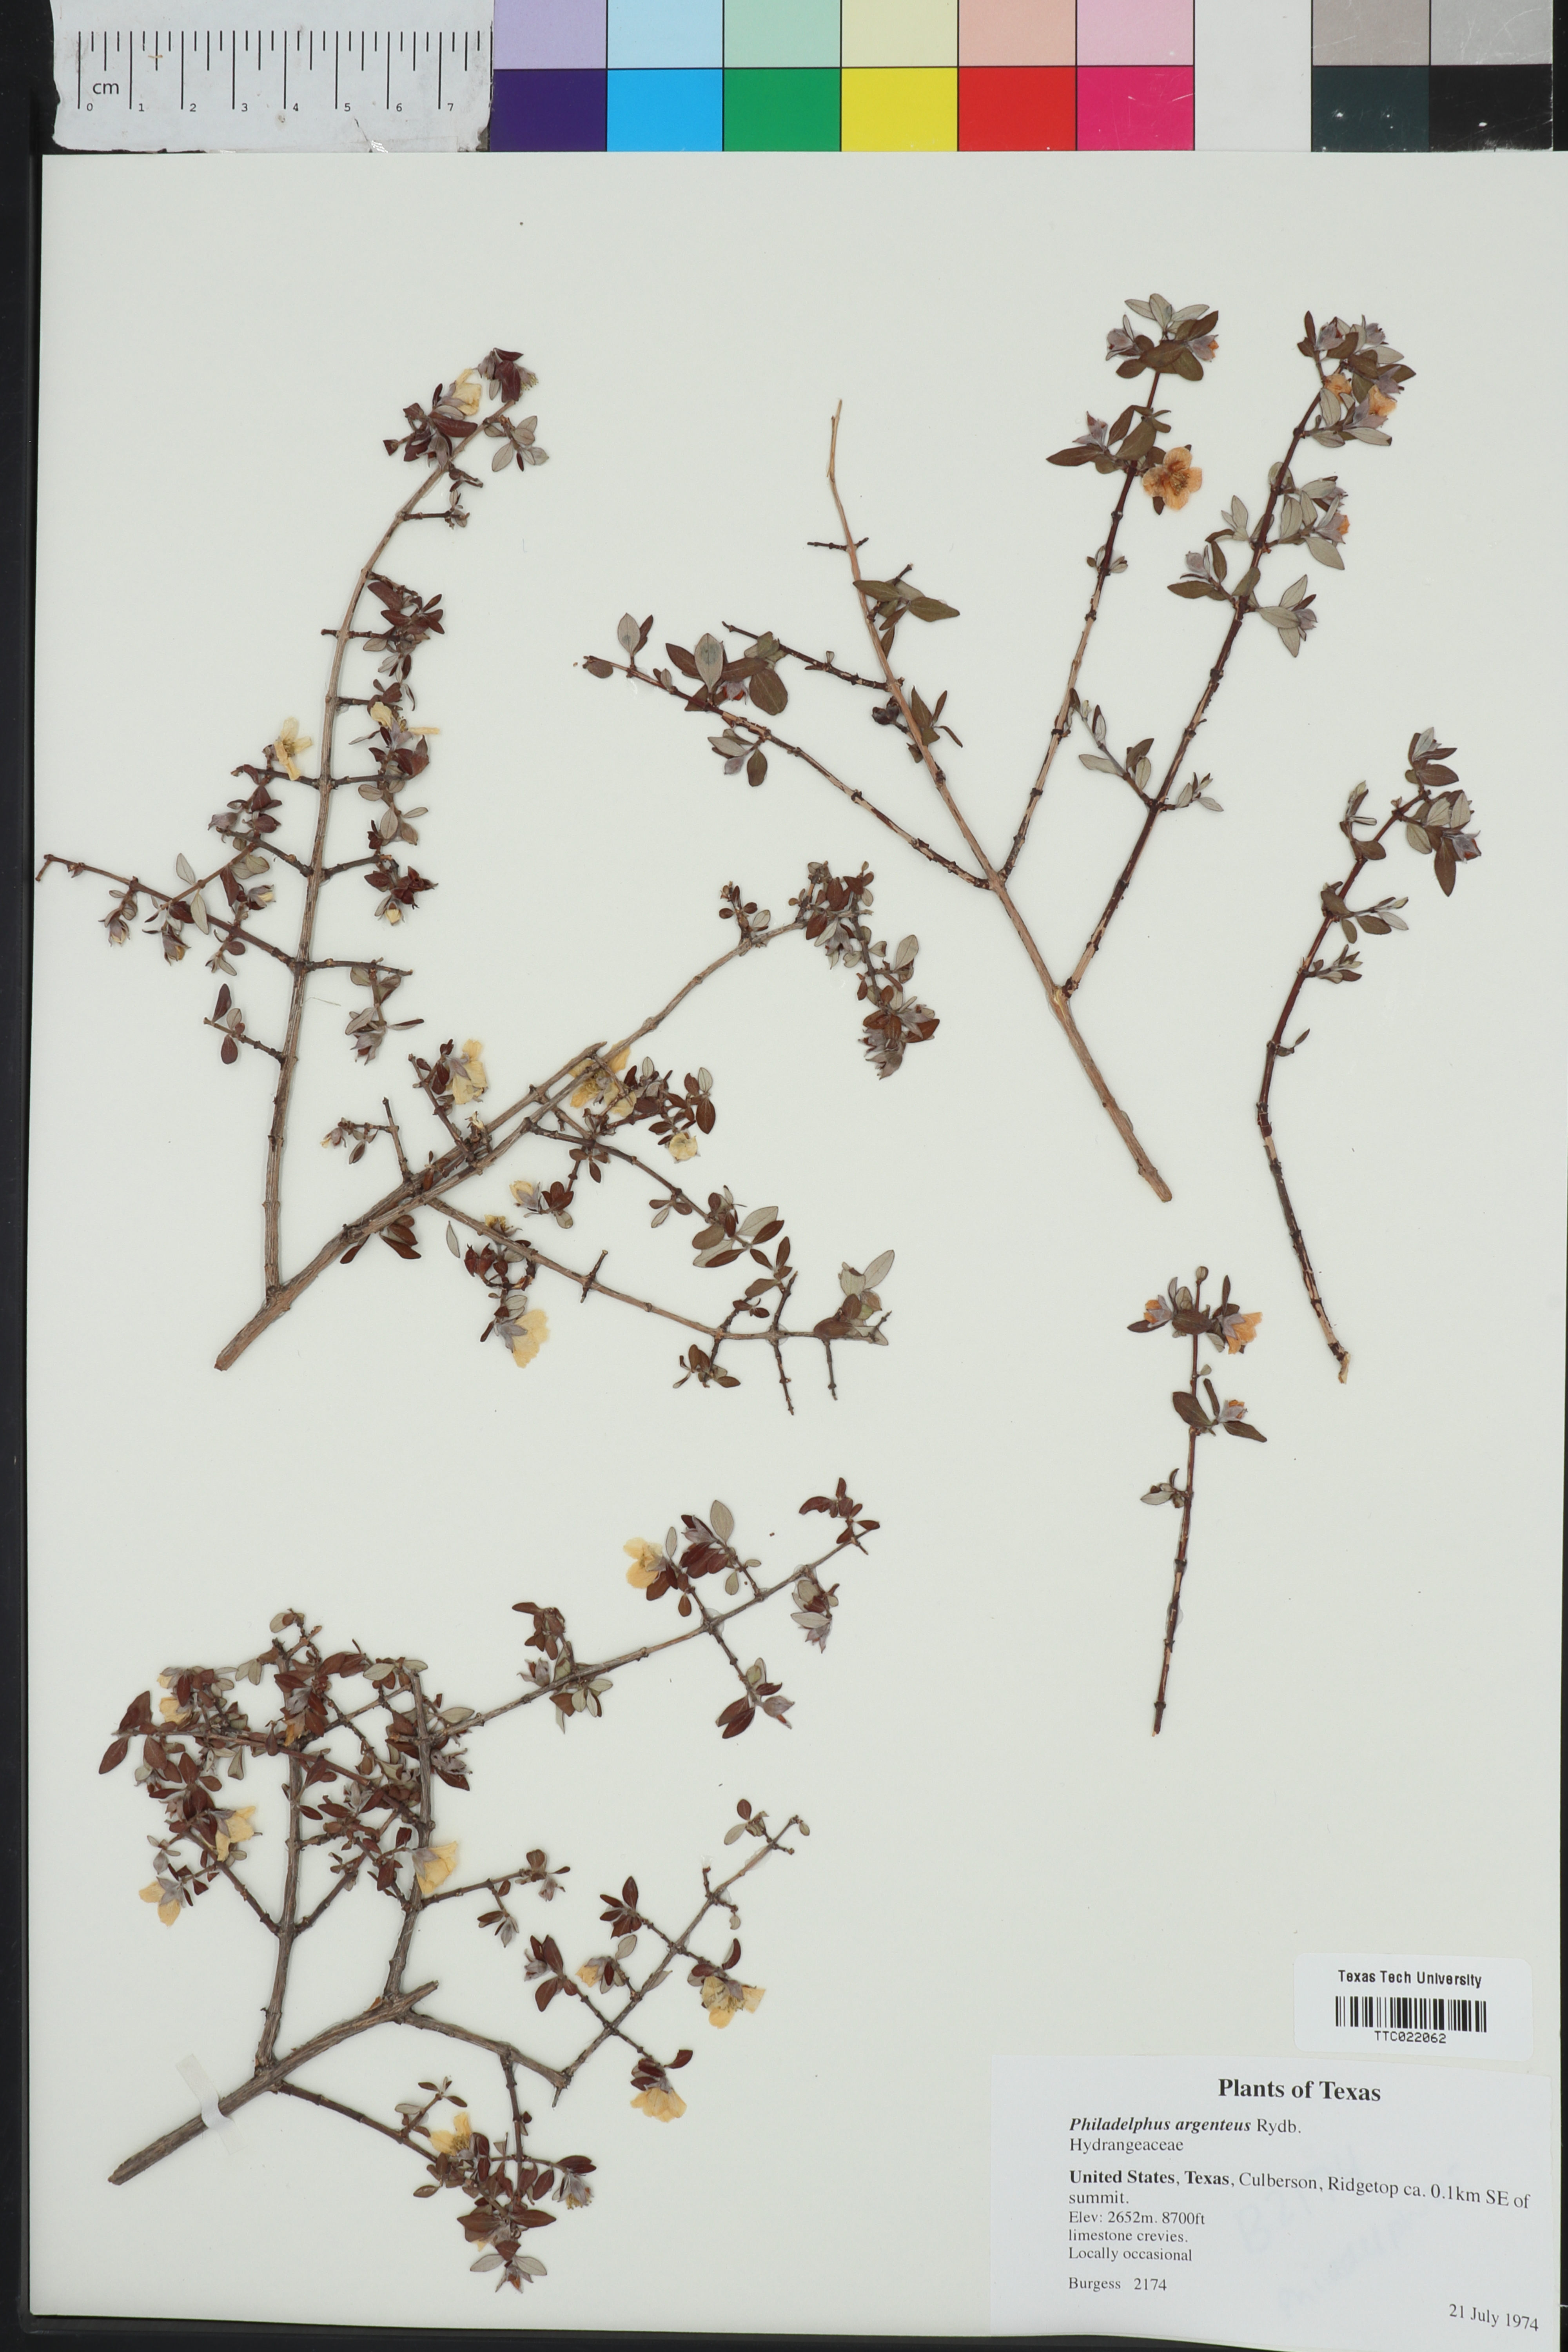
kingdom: Plantae
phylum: Tracheophyta
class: Magnoliopsida
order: Cornales
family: Hydrangeaceae
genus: Philadelphus
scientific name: Philadelphus microphyllus
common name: Desert mock orange
